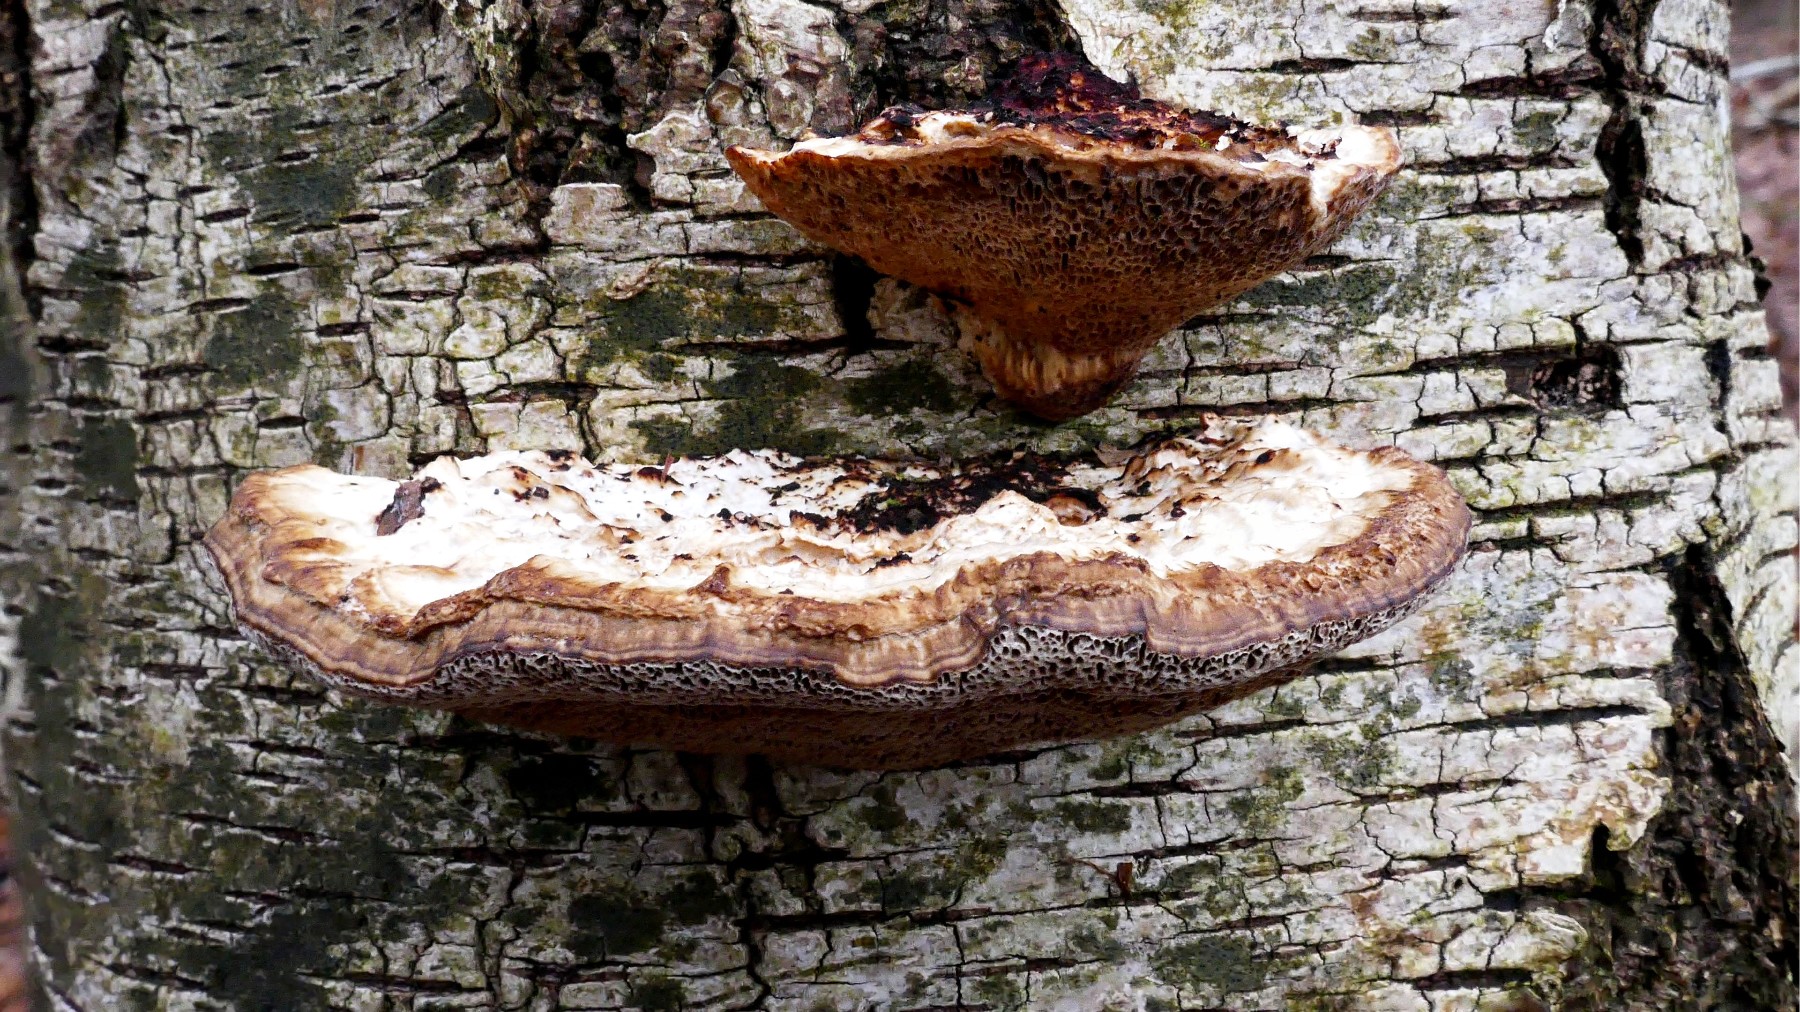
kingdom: Fungi
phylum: Basidiomycota
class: Agaricomycetes
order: Polyporales
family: Polyporaceae
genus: Daedaleopsis
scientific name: Daedaleopsis confragosa
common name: rødmende læderporesvamp
